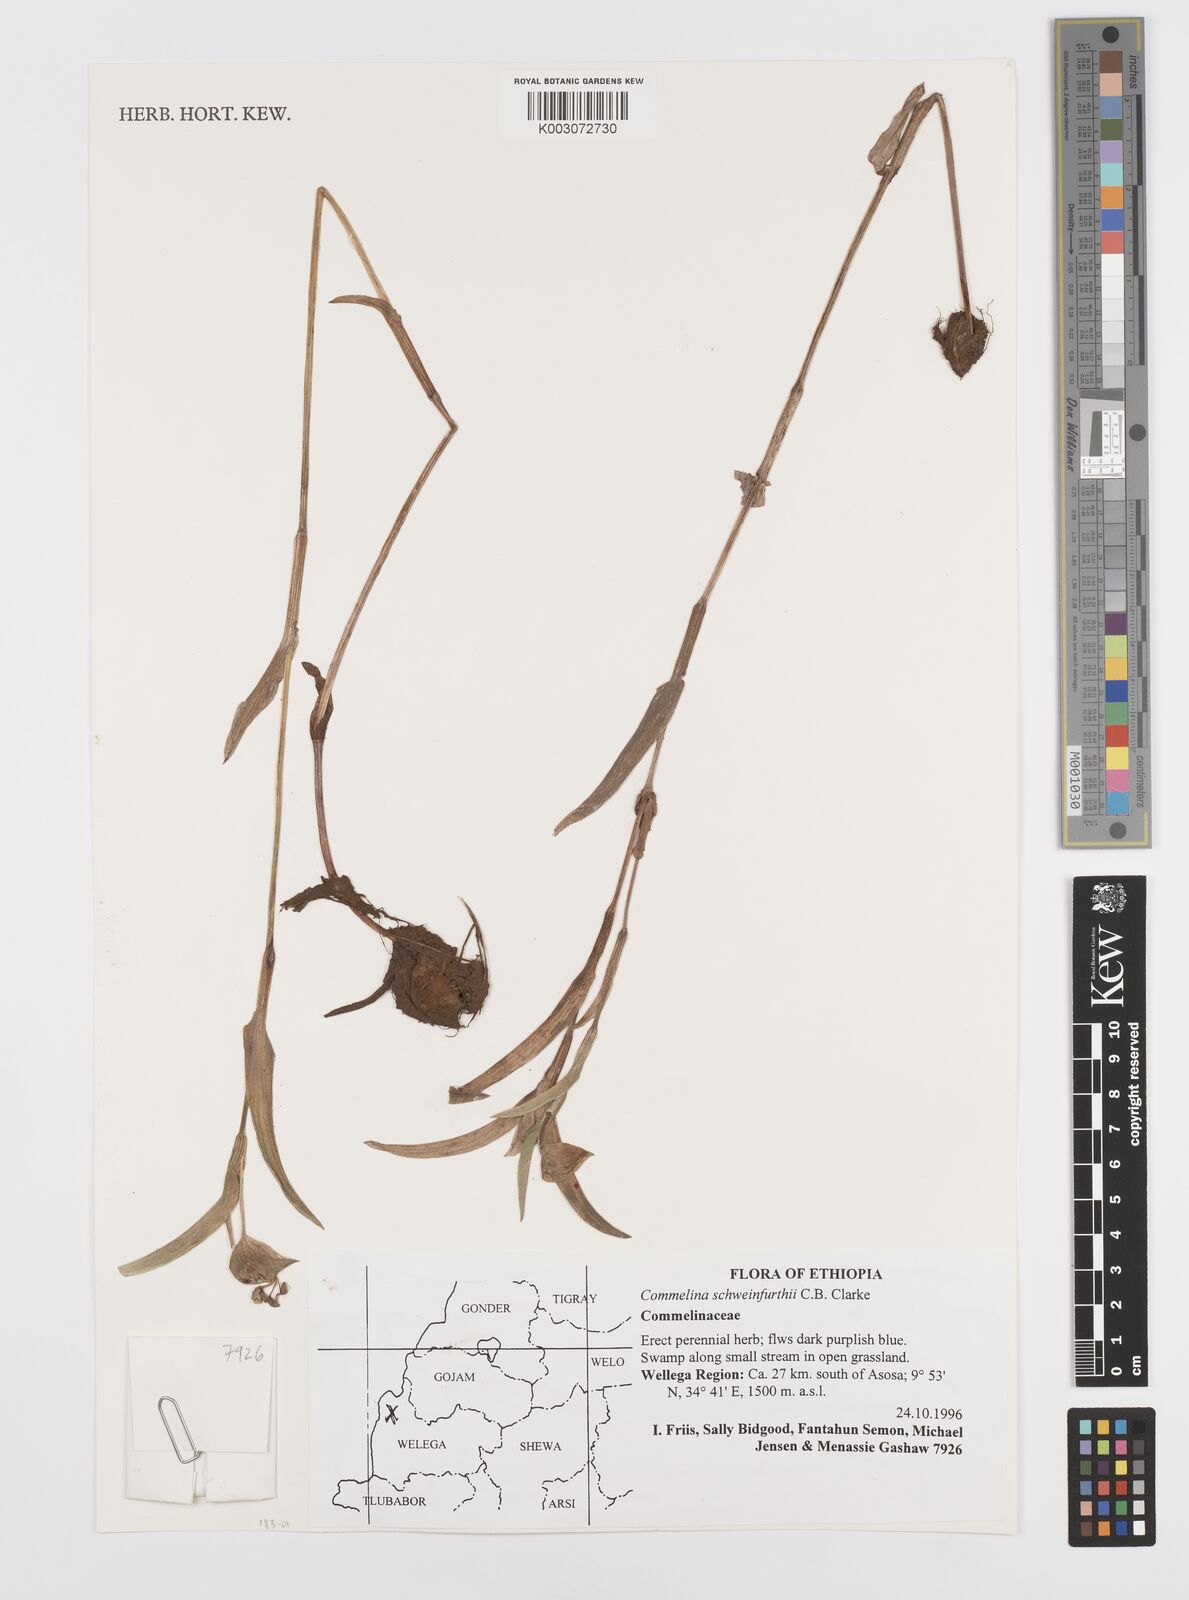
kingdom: Plantae
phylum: Tracheophyta
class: Liliopsida
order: Commelinales
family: Commelinaceae
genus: Commelina
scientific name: Commelina schweinfurthii
